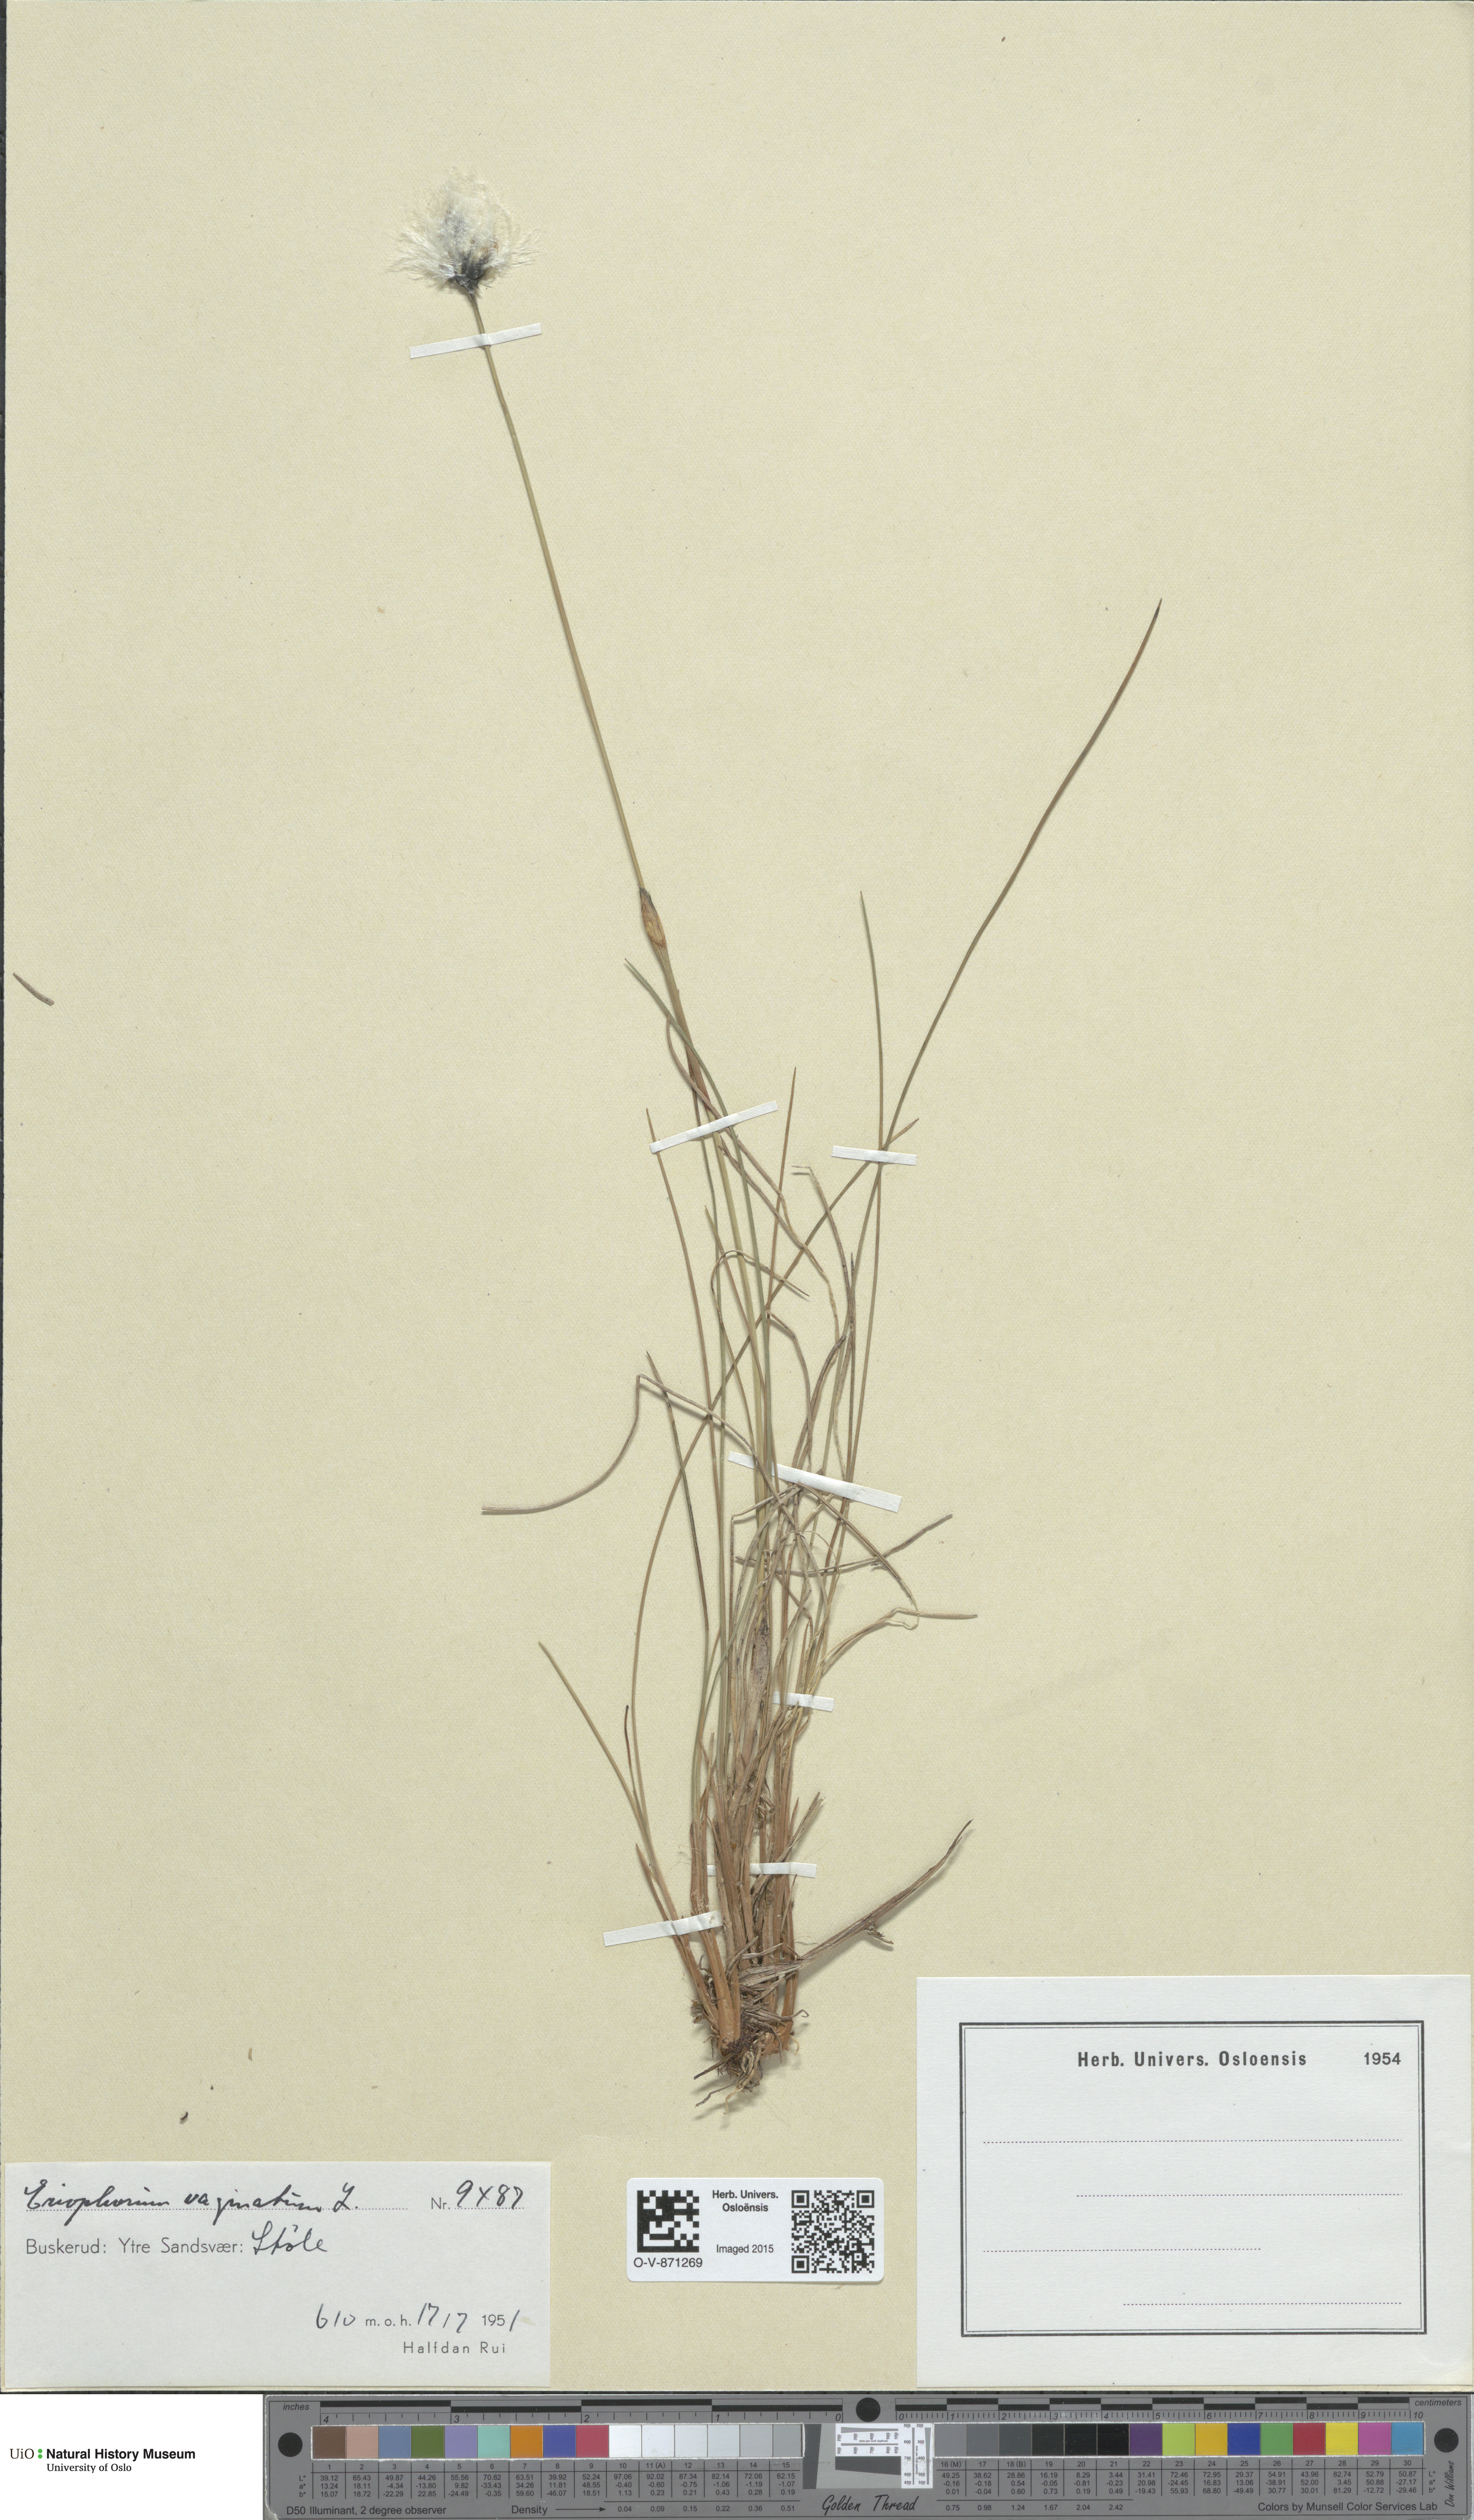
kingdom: Plantae
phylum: Tracheophyta
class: Liliopsida
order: Poales
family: Cyperaceae
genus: Eriophorum
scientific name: Eriophorum vaginatum
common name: Hare's-tail cottongrass
